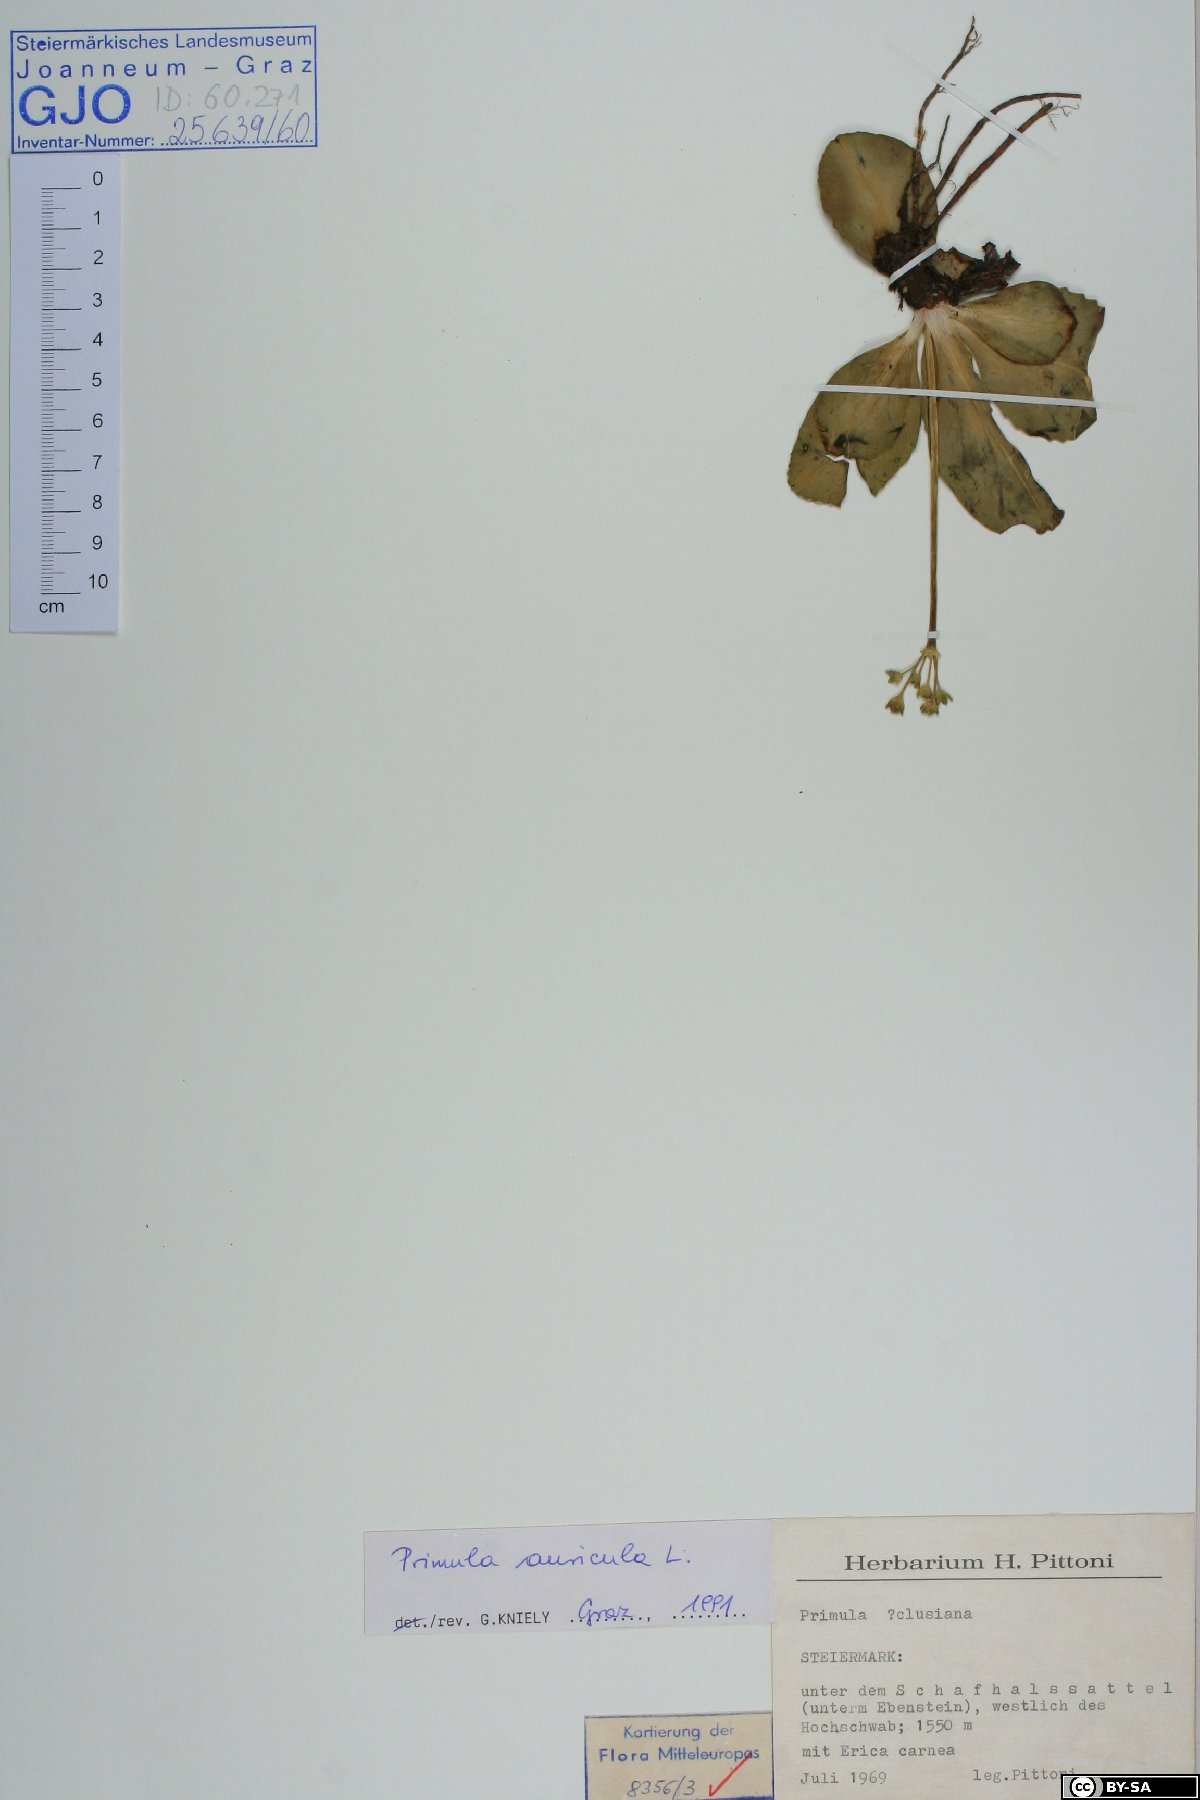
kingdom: Plantae
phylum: Tracheophyta
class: Magnoliopsida
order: Ericales
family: Primulaceae
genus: Primula
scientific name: Primula auricula
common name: Auricula
